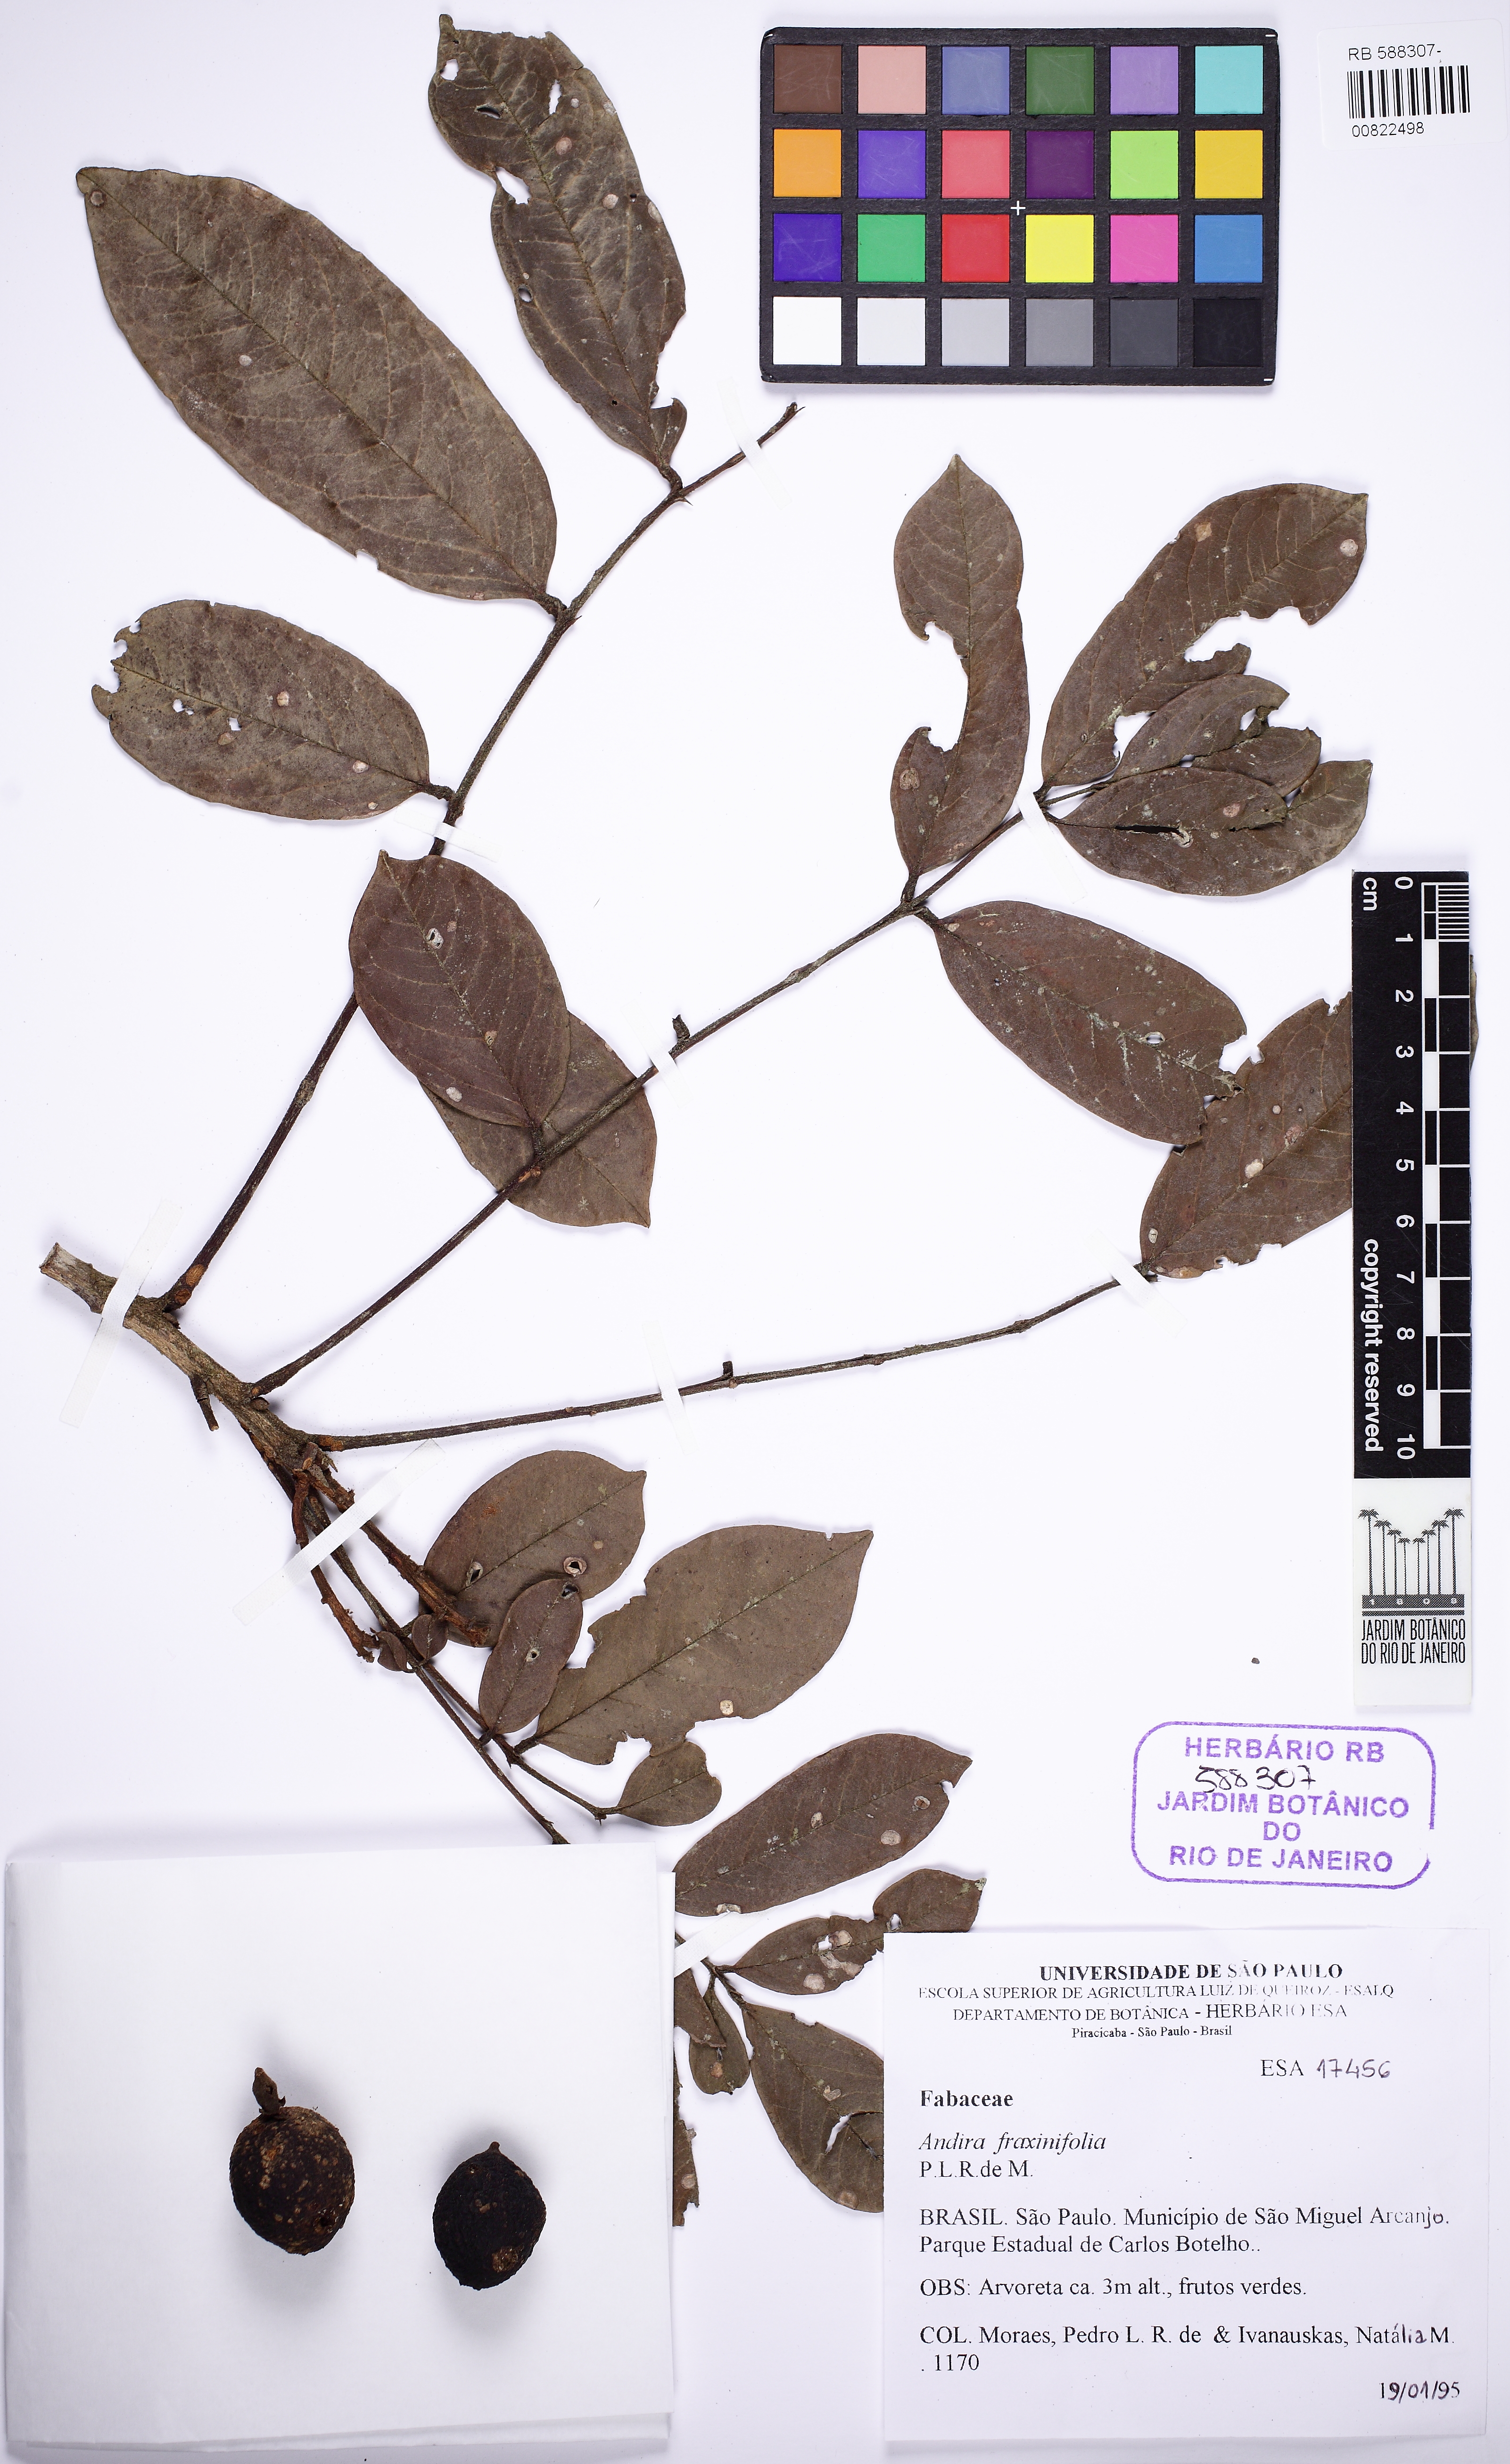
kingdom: Plantae
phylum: Tracheophyta
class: Magnoliopsida
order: Fabales
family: Fabaceae
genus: Andira
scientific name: Andira fraxinifolia
